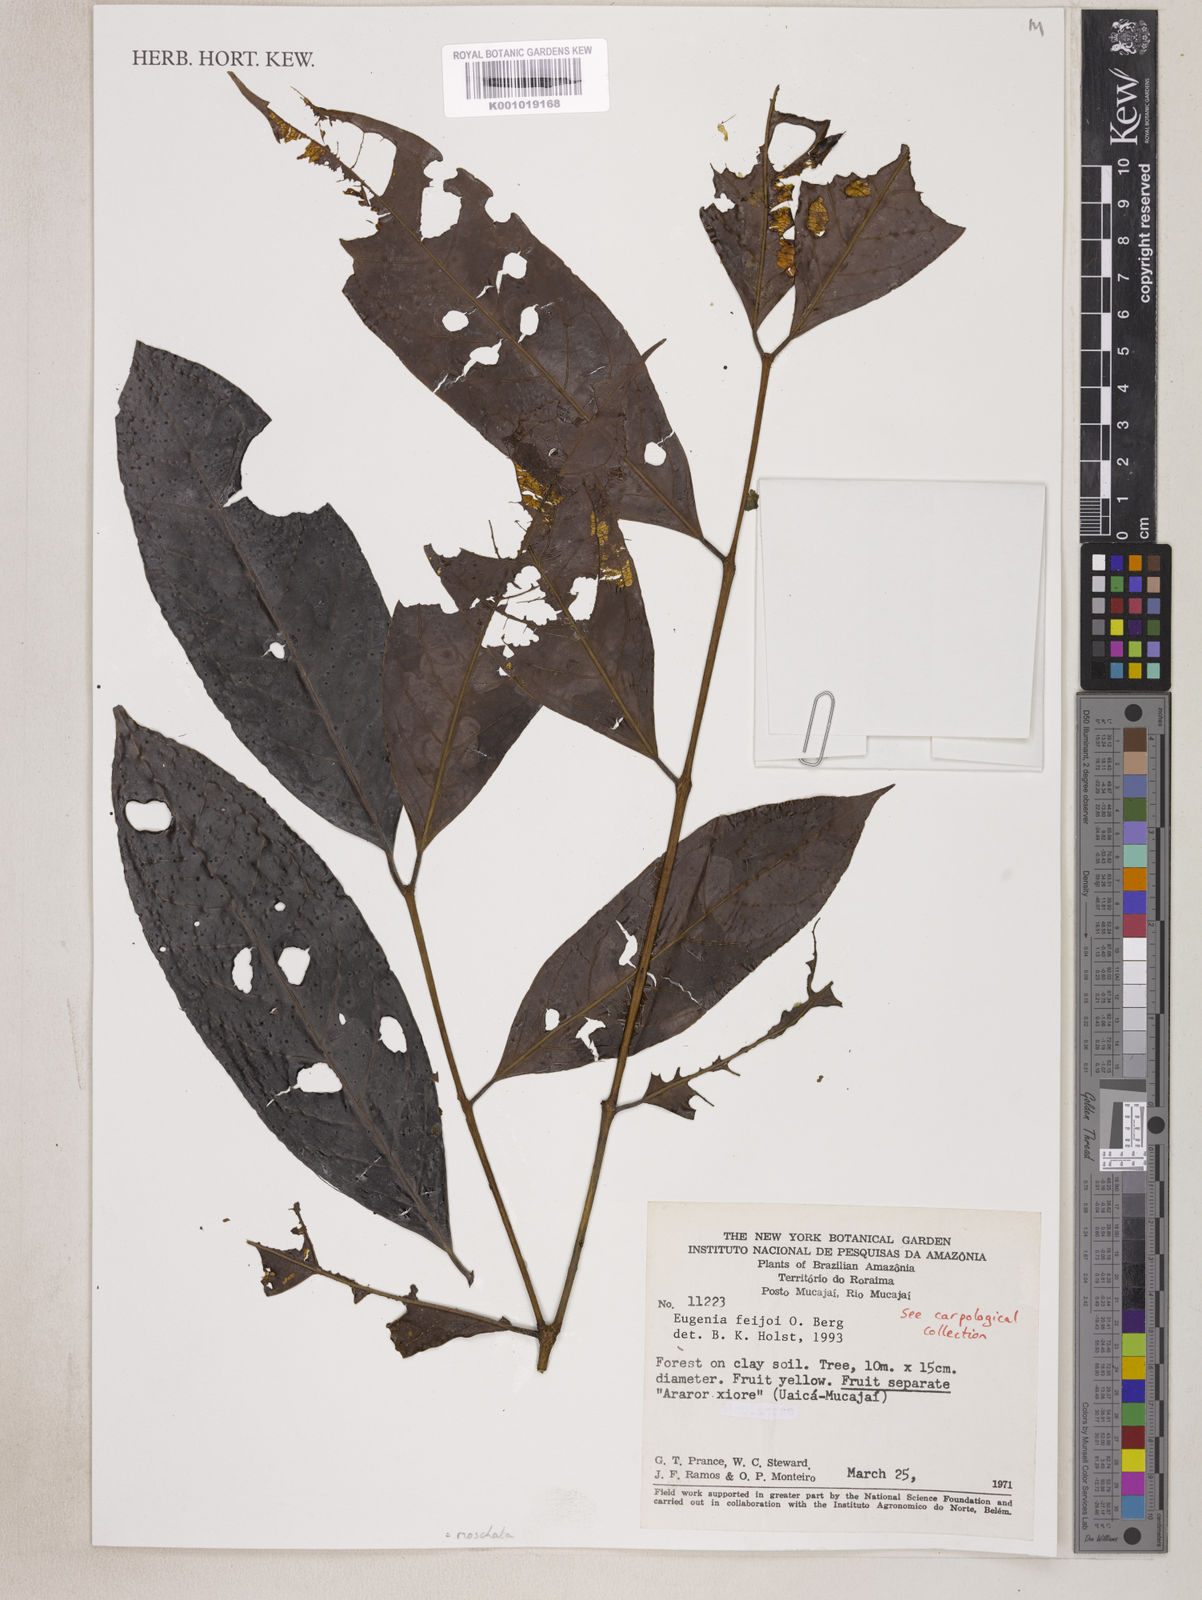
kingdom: Plantae
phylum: Tracheophyta
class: Magnoliopsida
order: Myrtales
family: Myrtaceae
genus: Eugenia
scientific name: Eugenia moschata
